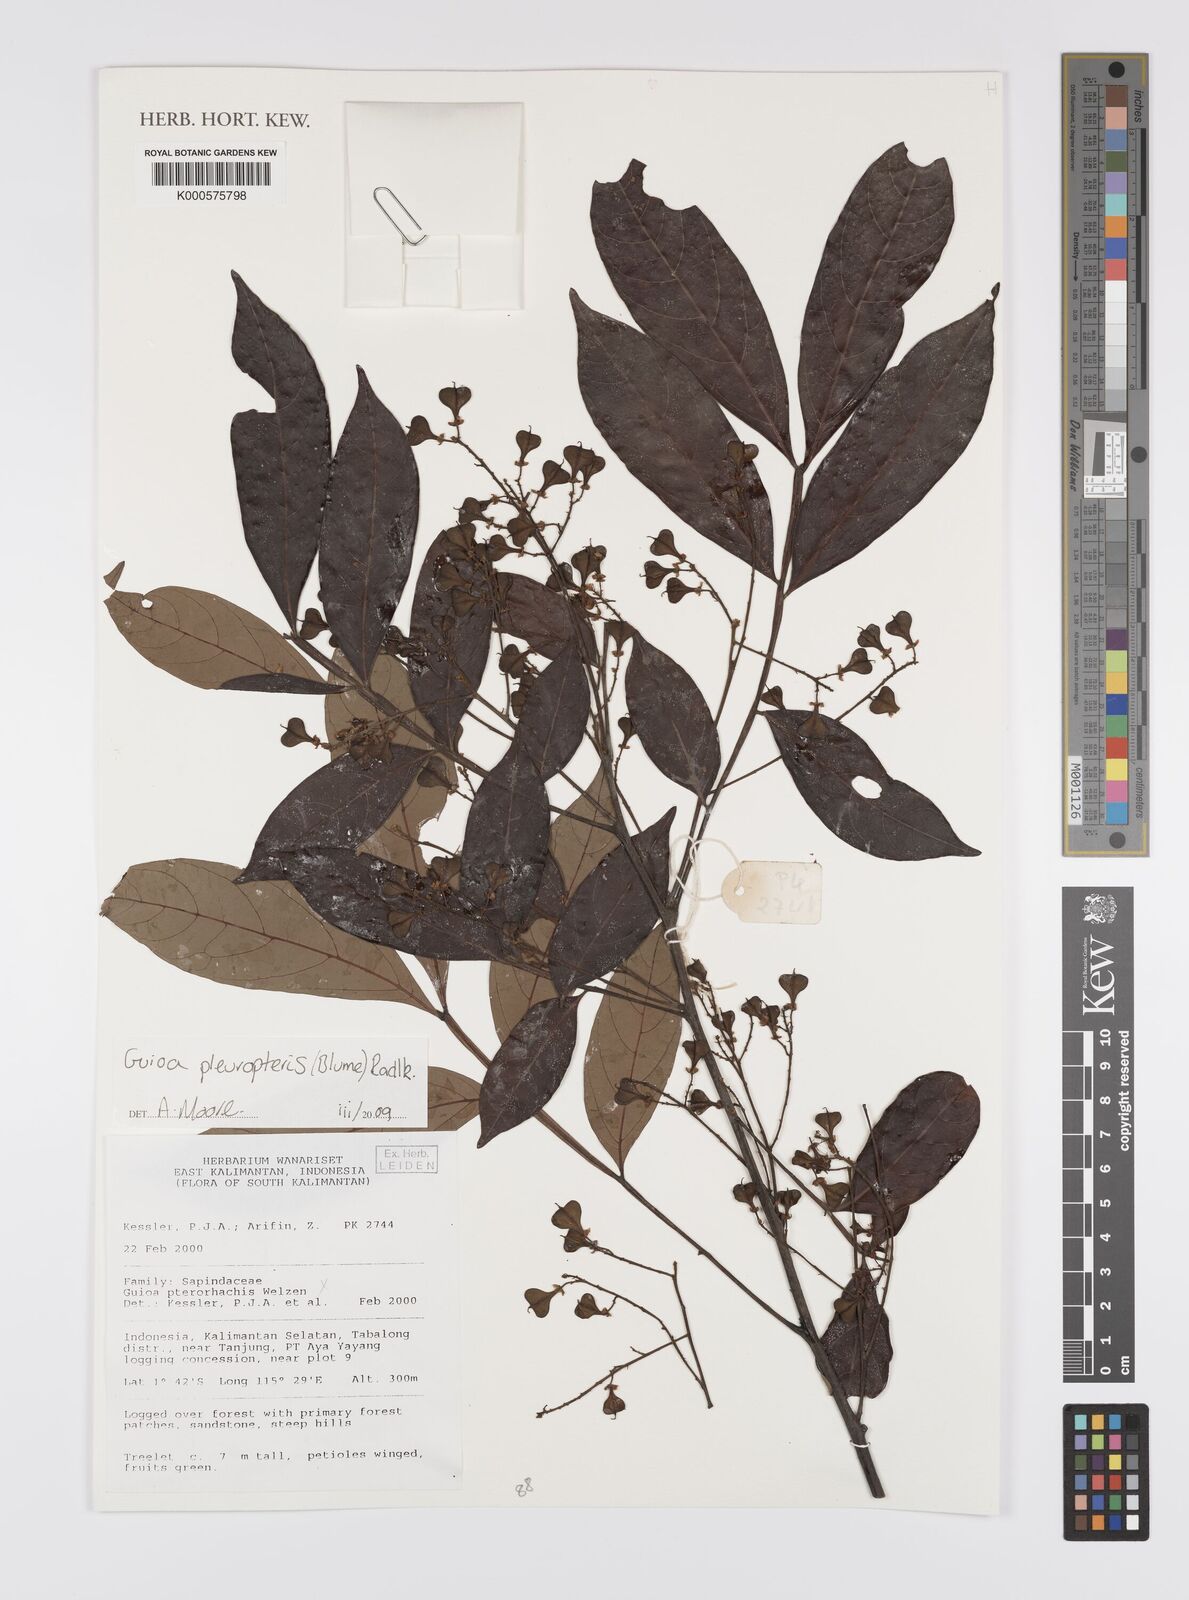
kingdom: Plantae
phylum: Tracheophyta
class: Magnoliopsida
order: Sapindales
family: Sapindaceae
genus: Guioa
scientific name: Guioa pleuropteris
